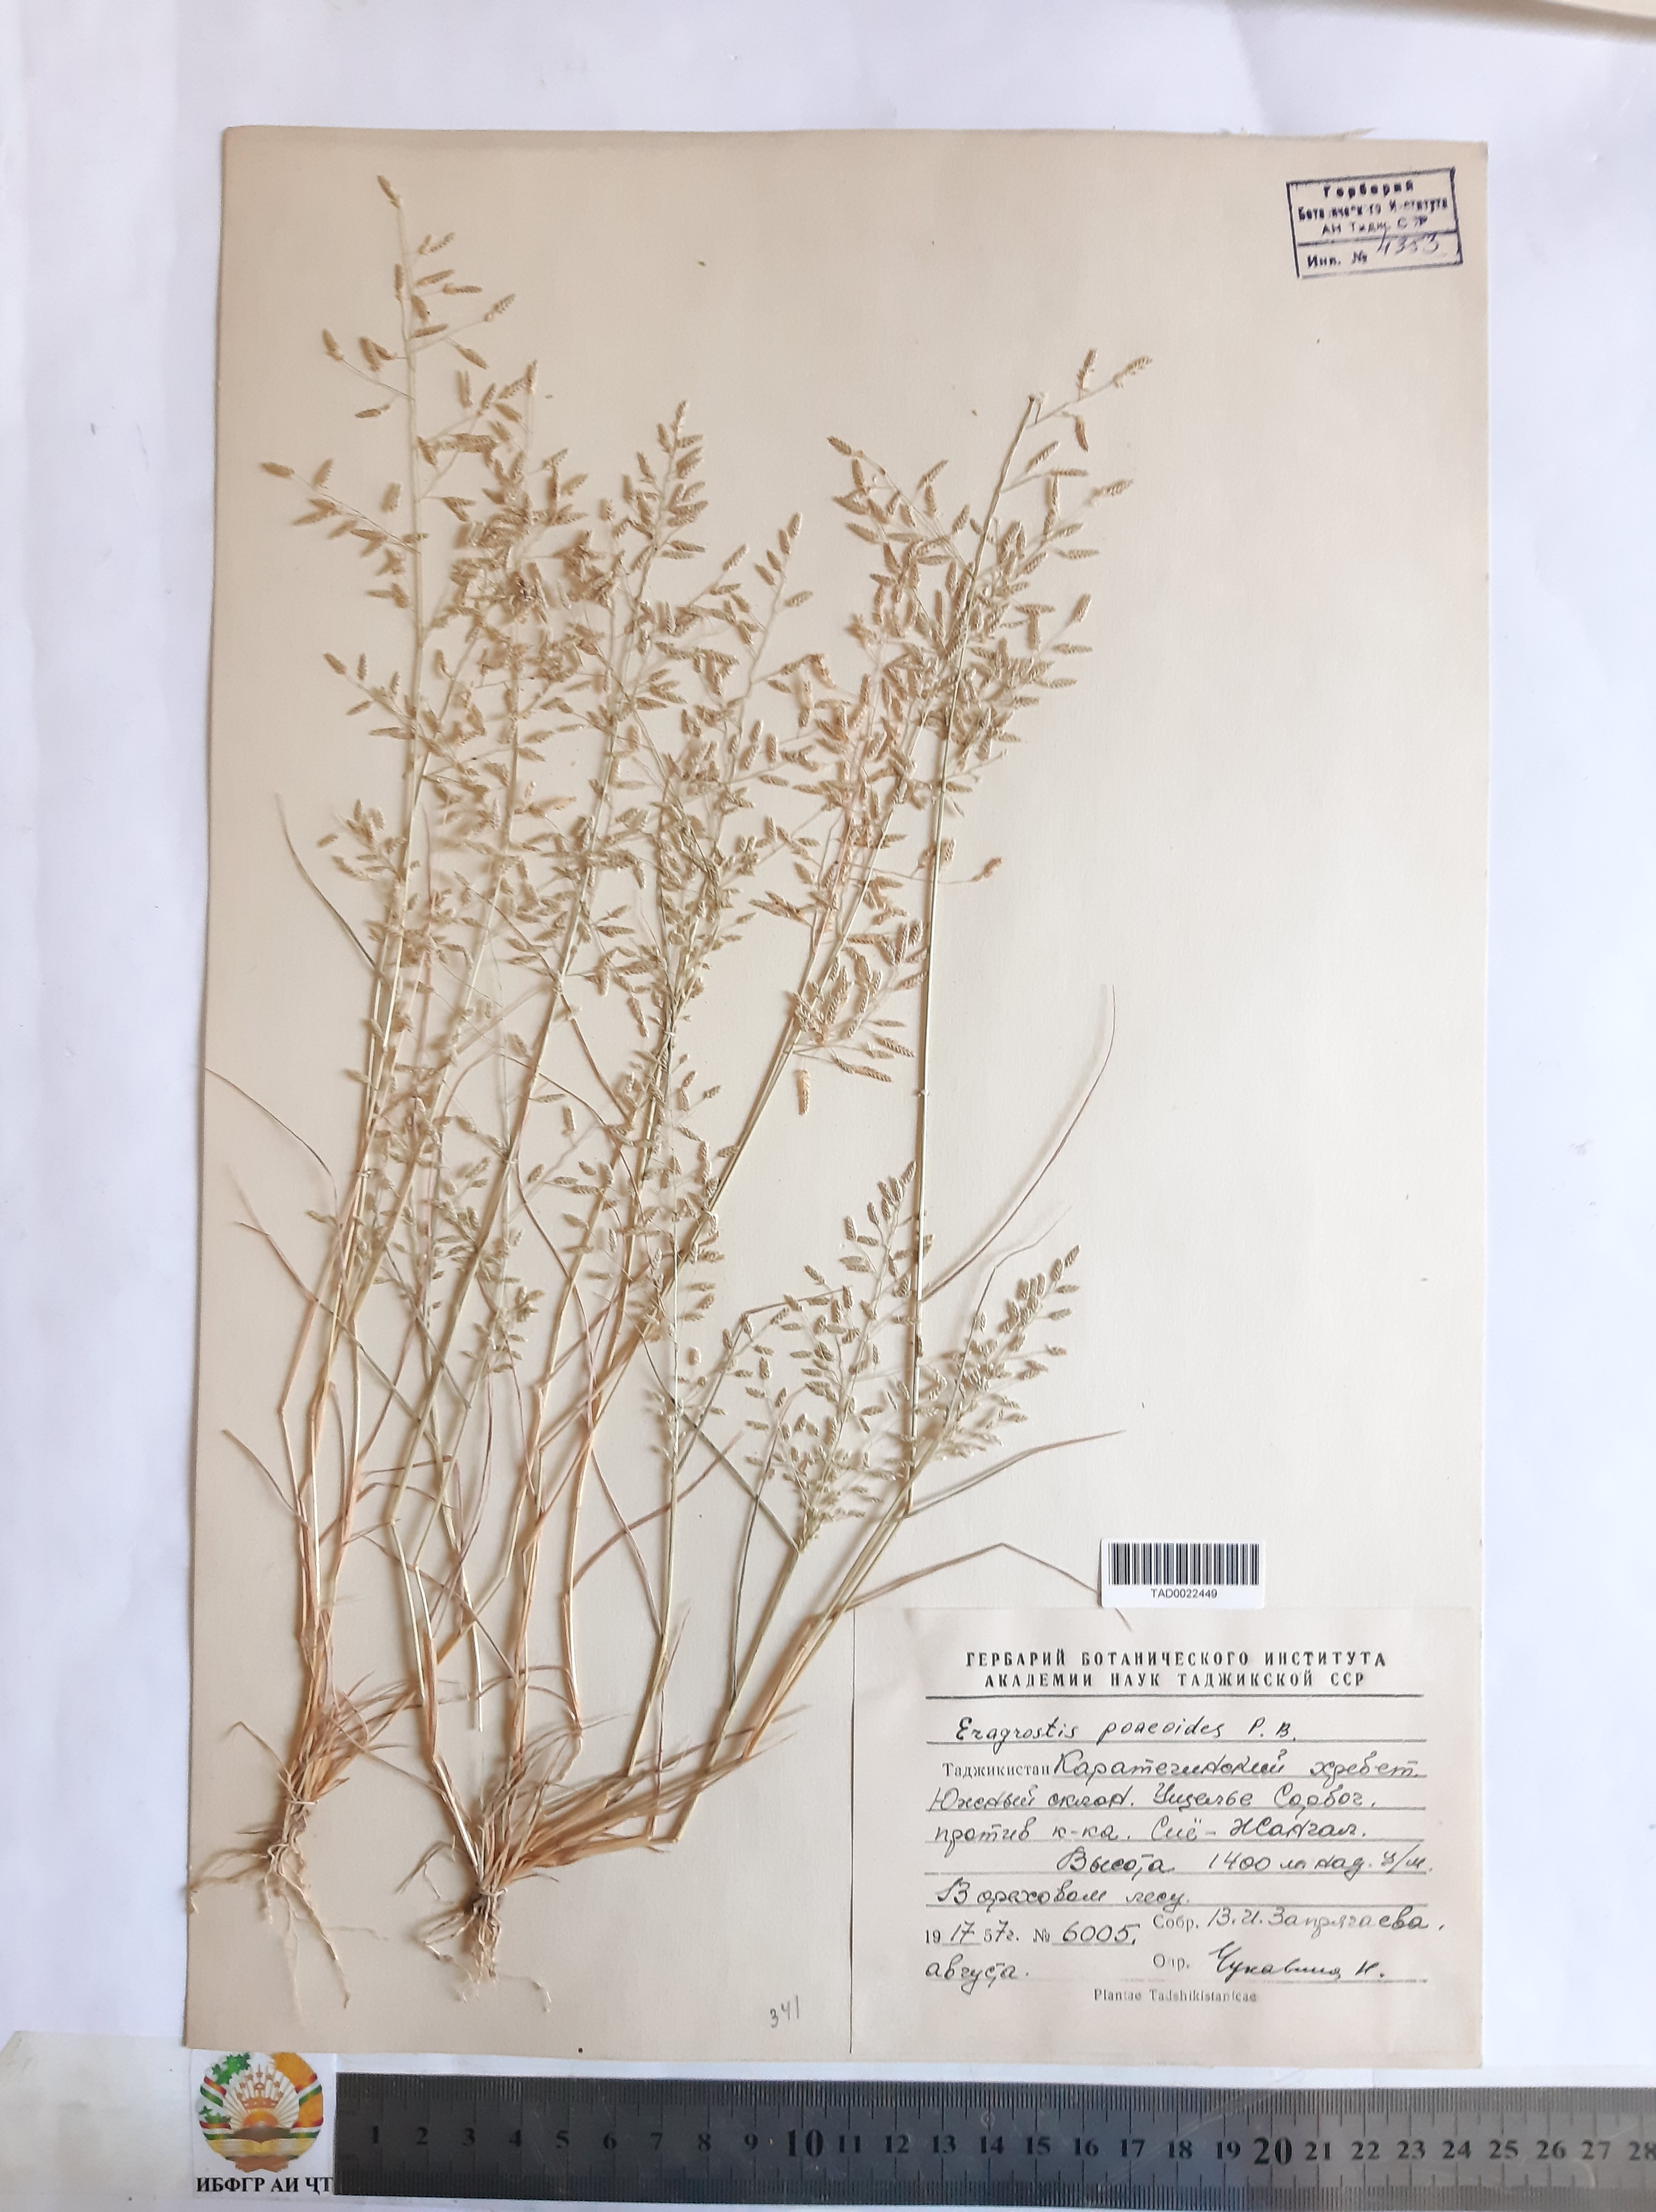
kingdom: Plantae
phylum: Tracheophyta
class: Liliopsida
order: Poales
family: Poaceae
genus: Eragrostis
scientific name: Eragrostis minor
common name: Small love-grass
